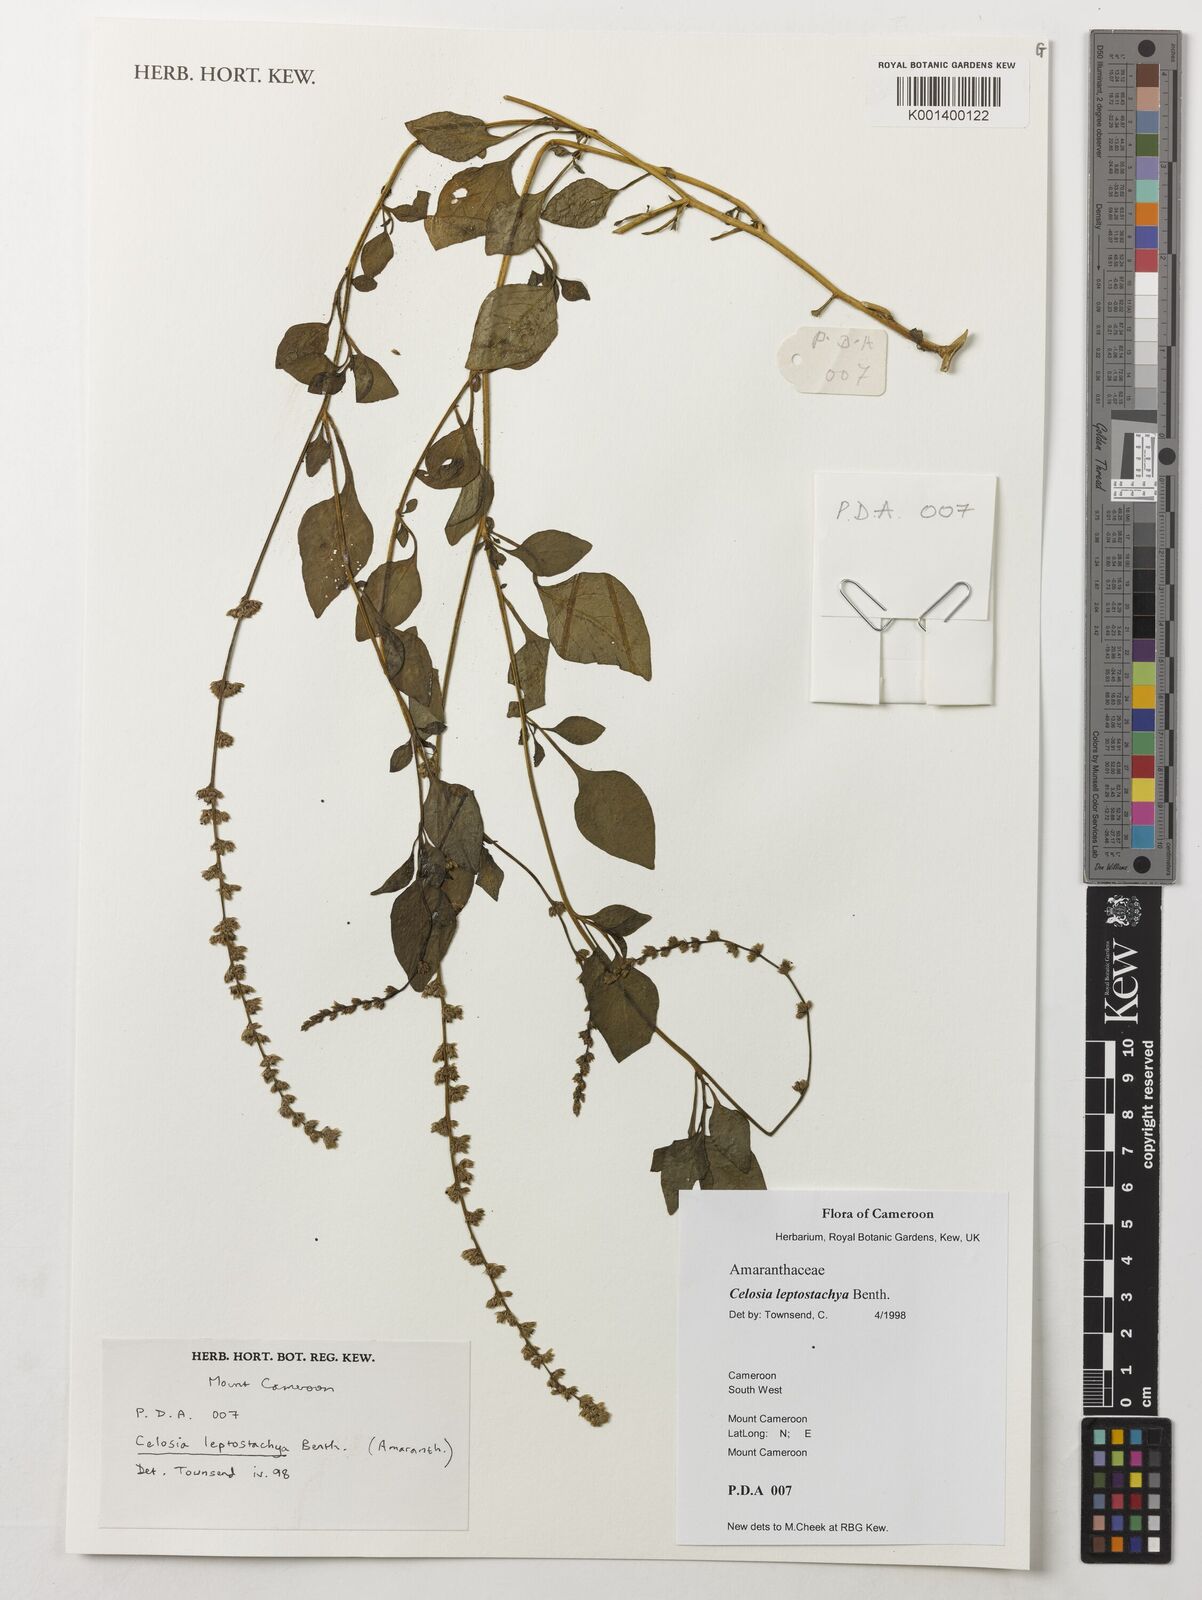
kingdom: Plantae
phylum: Tracheophyta
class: Magnoliopsida
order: Caryophyllales
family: Amaranthaceae
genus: Celosia
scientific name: Celosia leptostachya
